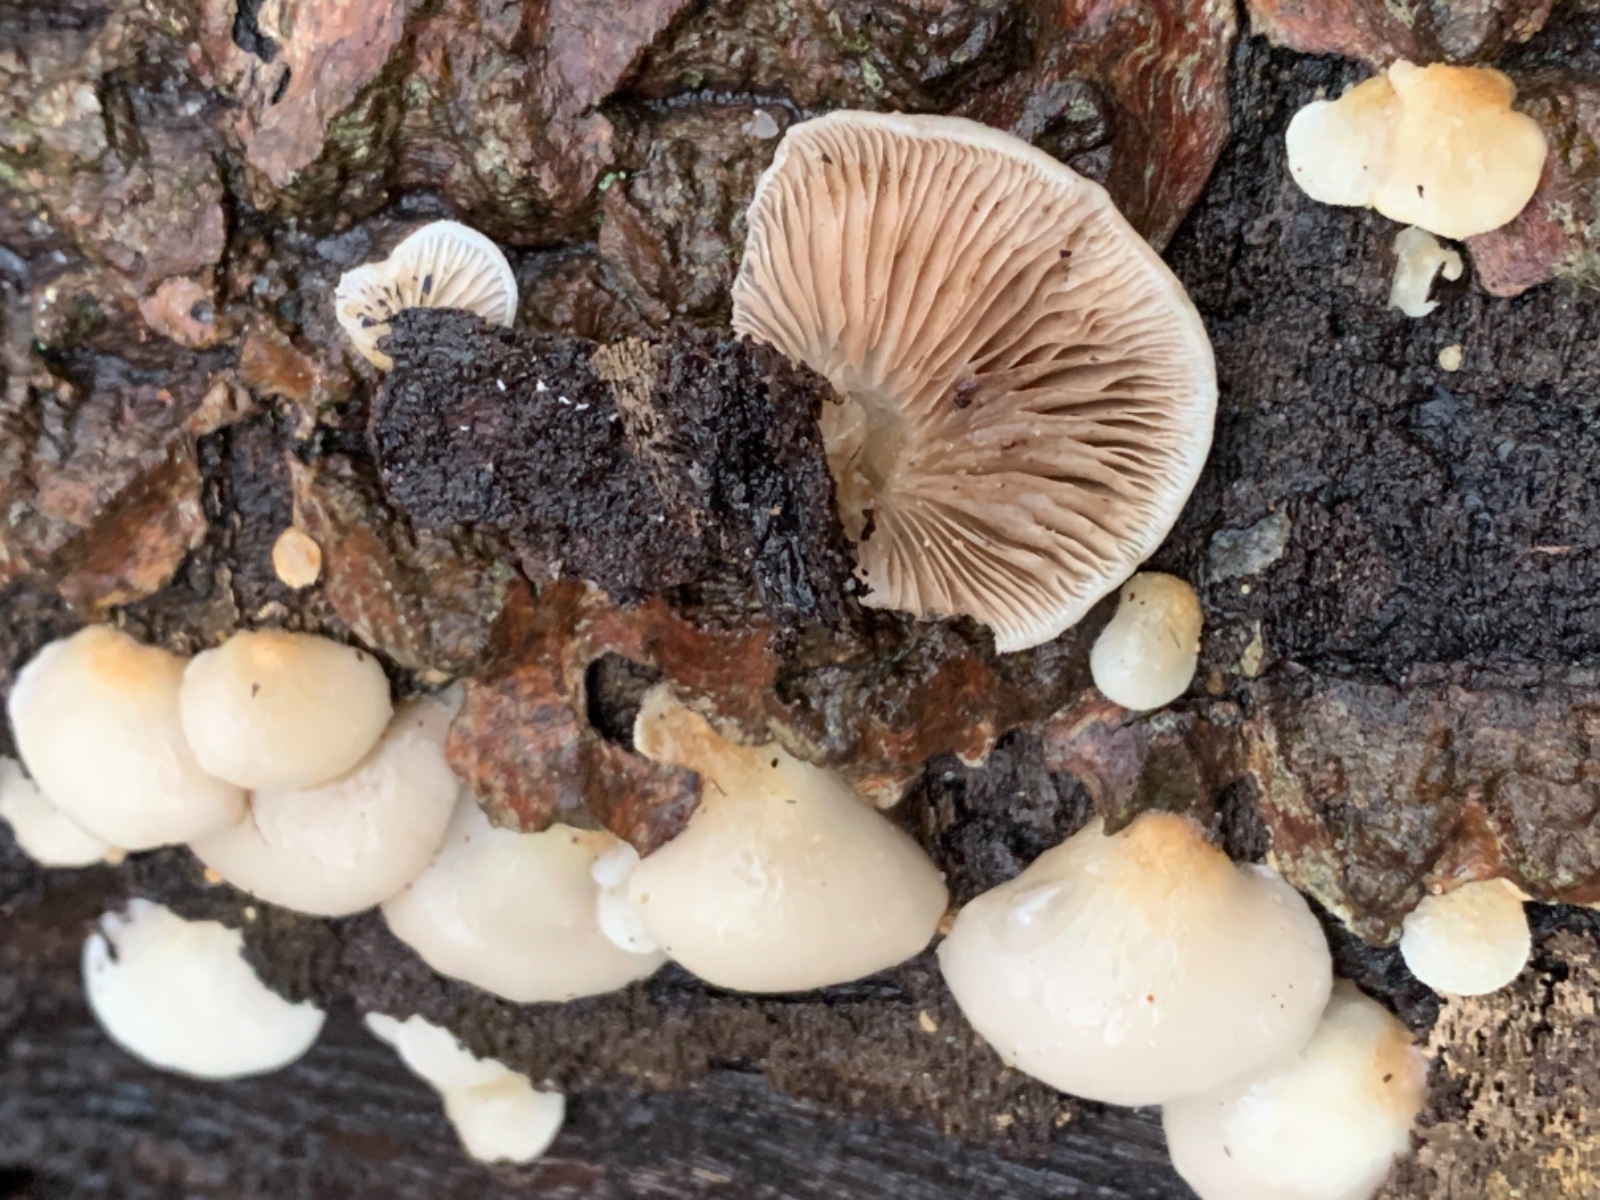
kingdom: Fungi
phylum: Basidiomycota
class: Agaricomycetes
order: Agaricales
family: Crepidotaceae
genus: Crepidotus
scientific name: Crepidotus mollis
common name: blød muslingesvamp
